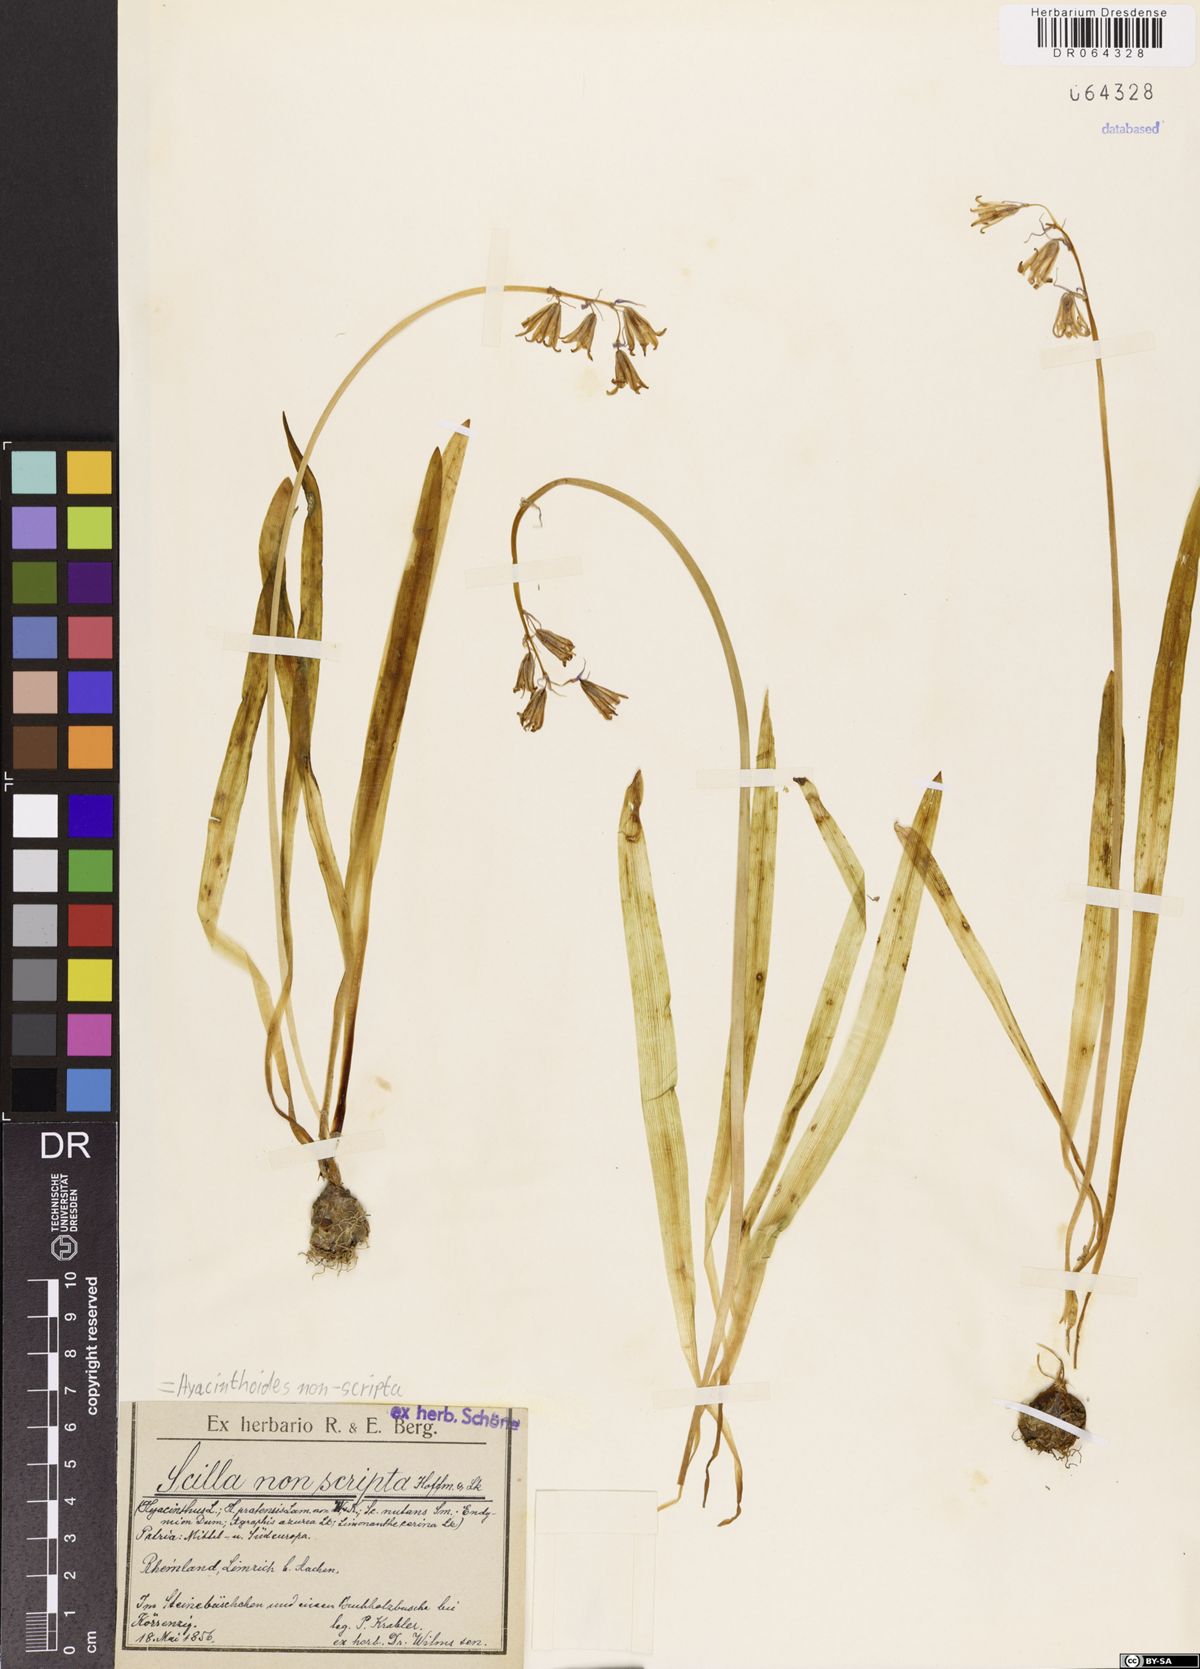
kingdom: Plantae
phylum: Tracheophyta
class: Liliopsida
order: Asparagales
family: Asparagaceae
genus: Hyacinthoides
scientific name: Hyacinthoides non-scripta
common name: Bluebell
